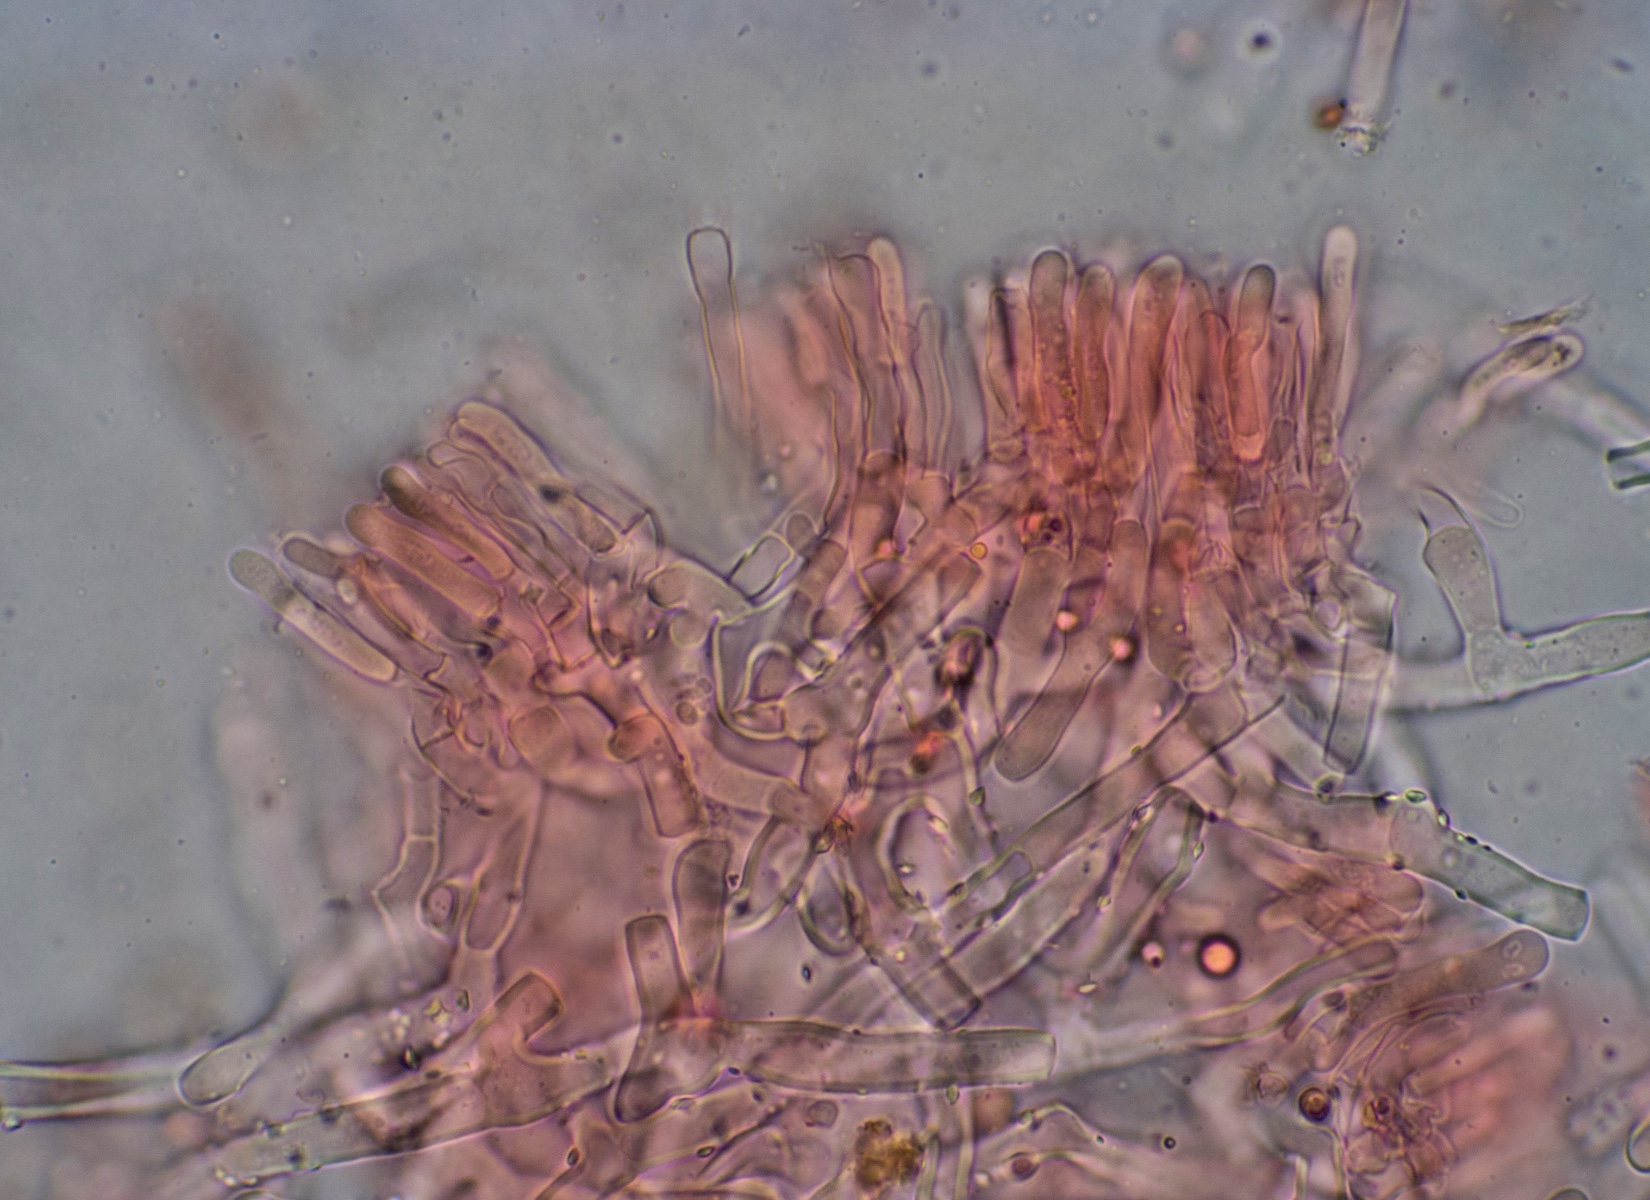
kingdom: Fungi
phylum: Basidiomycota
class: Agaricomycetes
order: Polyporales
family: Phanerochaetaceae
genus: Phanerochaete
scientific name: Phanerochaete sordida
